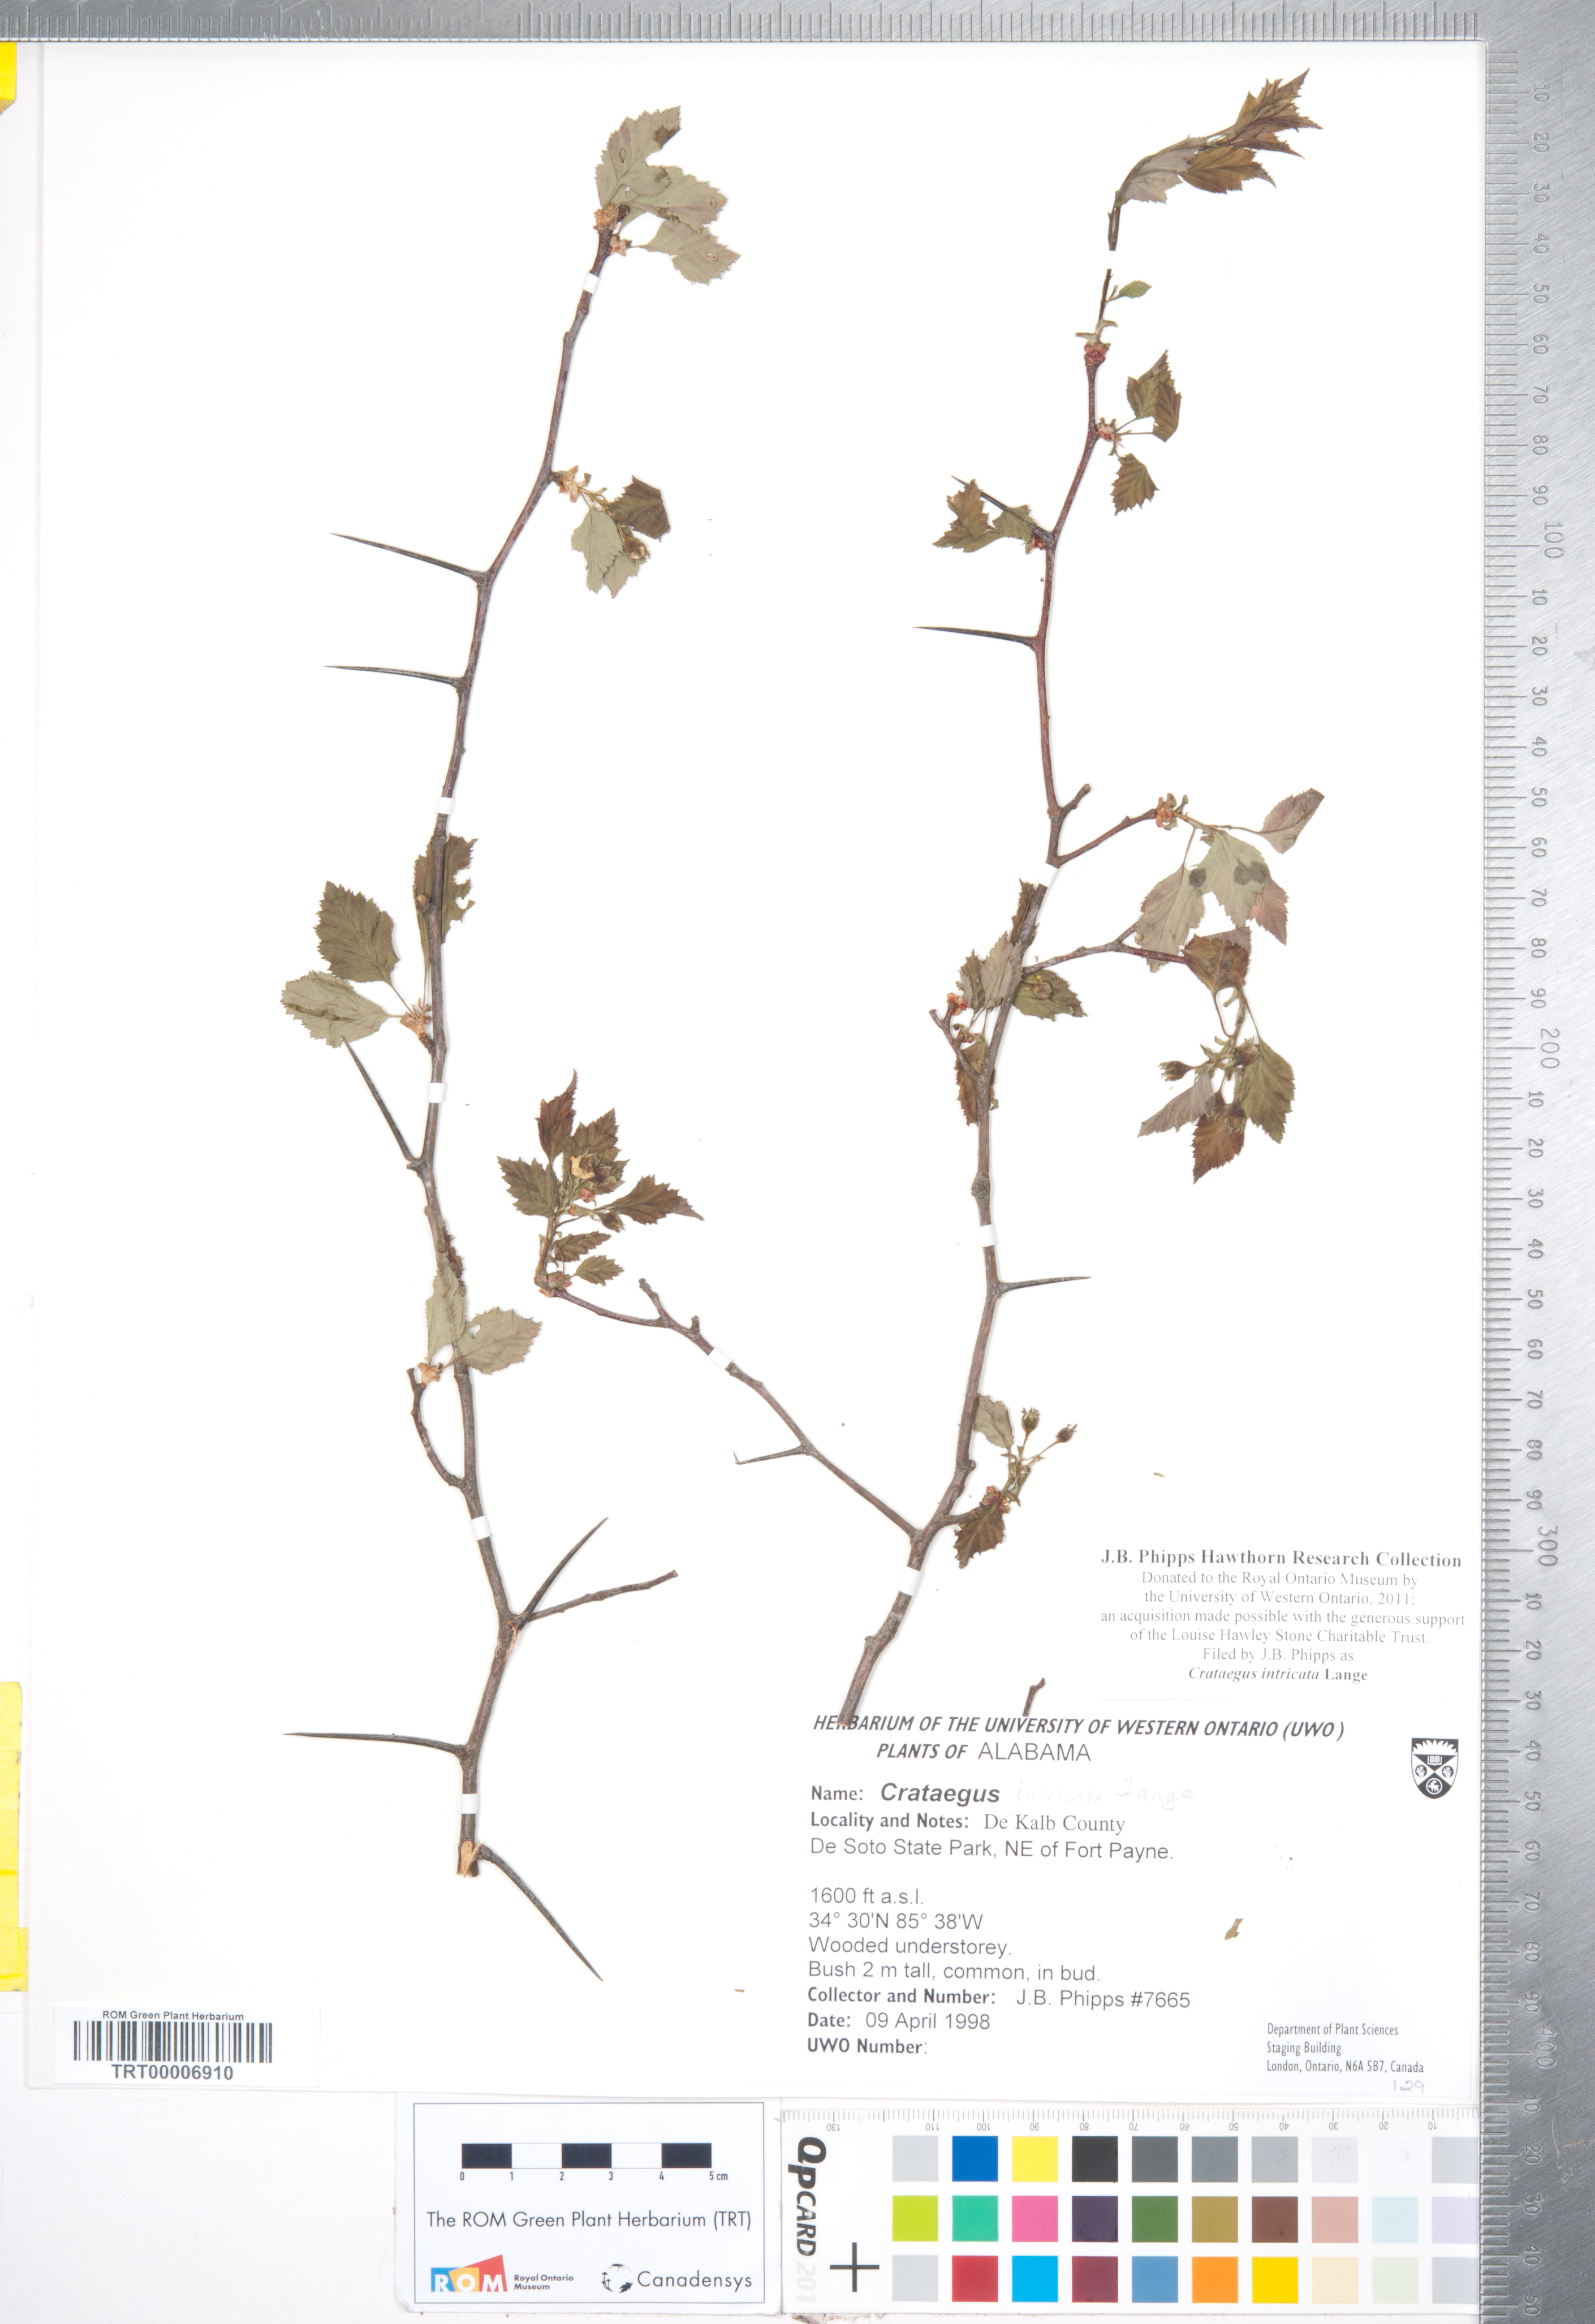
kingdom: Plantae
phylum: Tracheophyta
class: Magnoliopsida
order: Rosales
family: Rosaceae
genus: Crataegus
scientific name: Crataegus intricata
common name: Biltmore hawthorn
